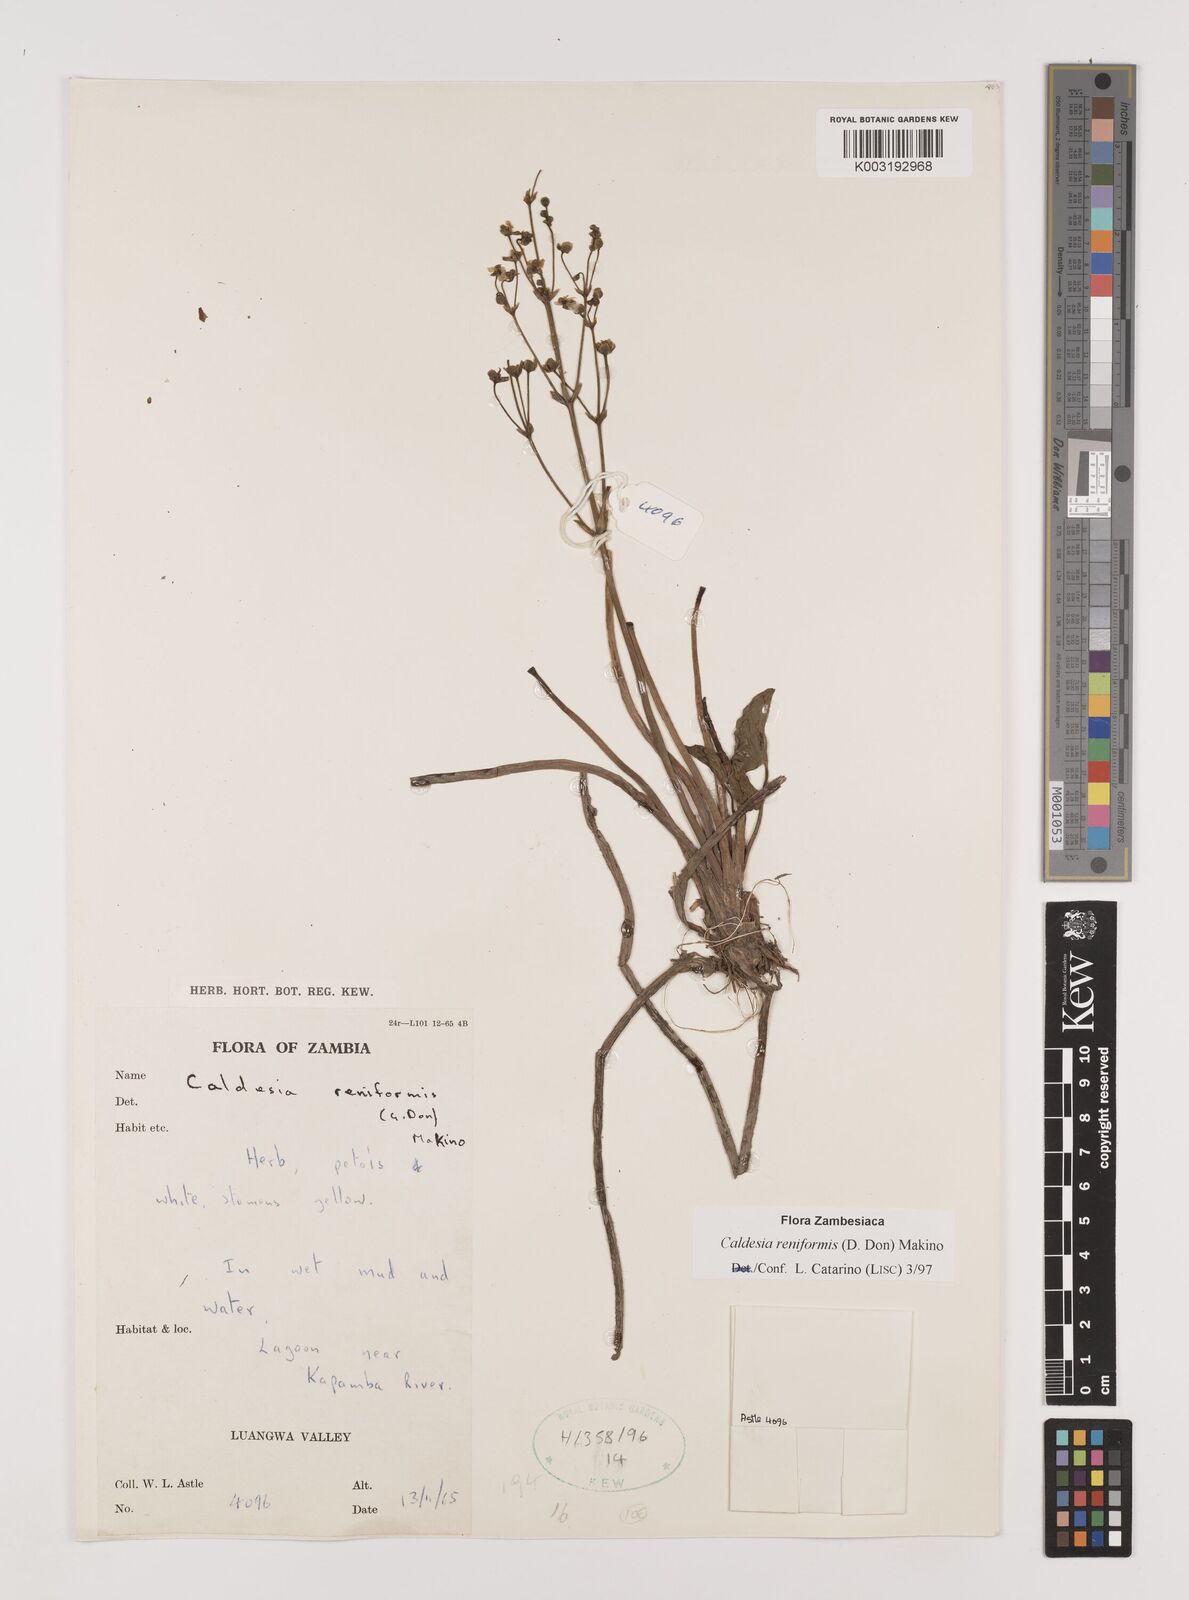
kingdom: Plantae
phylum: Tracheophyta
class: Liliopsida
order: Alismatales
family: Alismataceae
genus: Caldesia
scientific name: Caldesia parnassifolia
